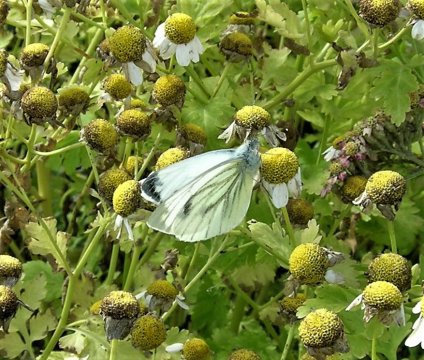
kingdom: Animalia
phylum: Arthropoda
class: Insecta
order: Lepidoptera
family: Pieridae
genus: Pieris
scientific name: Pieris napi
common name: Green-veined White
